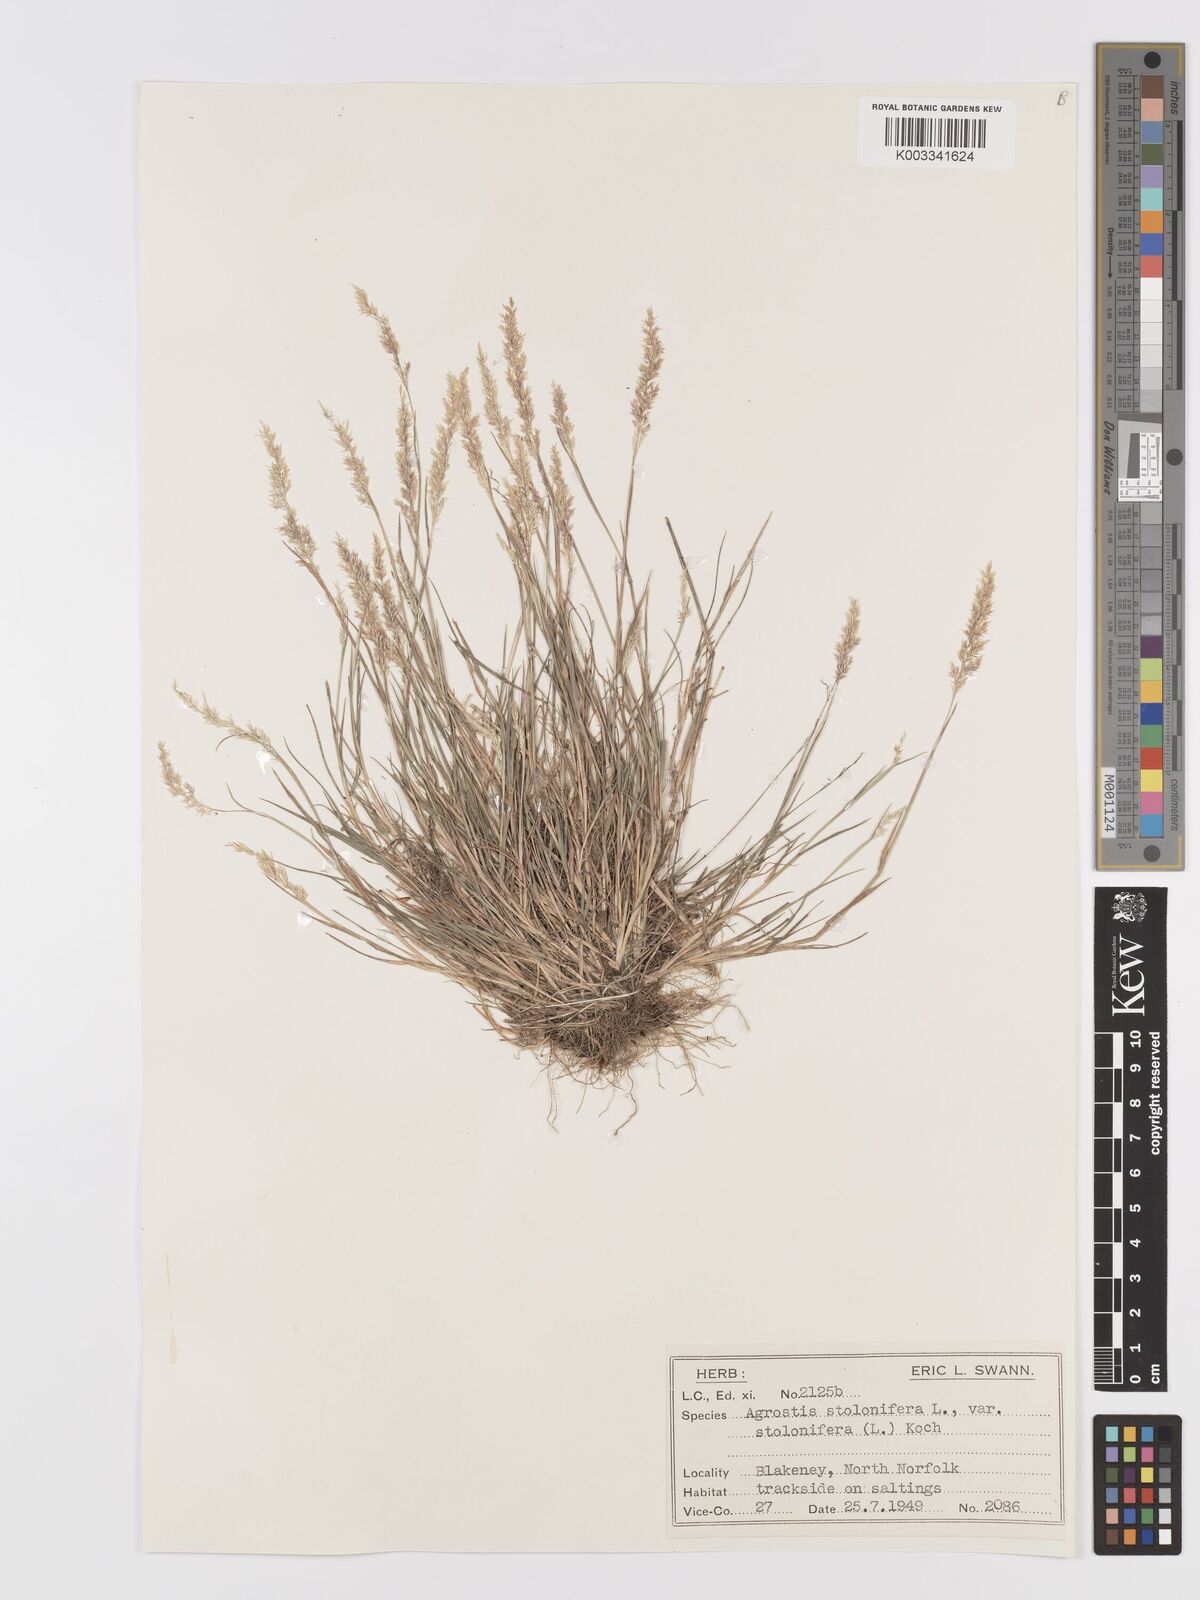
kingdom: Plantae
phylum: Tracheophyta
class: Liliopsida
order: Poales
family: Poaceae
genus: Agrostis
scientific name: Agrostis stolonifera
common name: Creeping bentgrass
